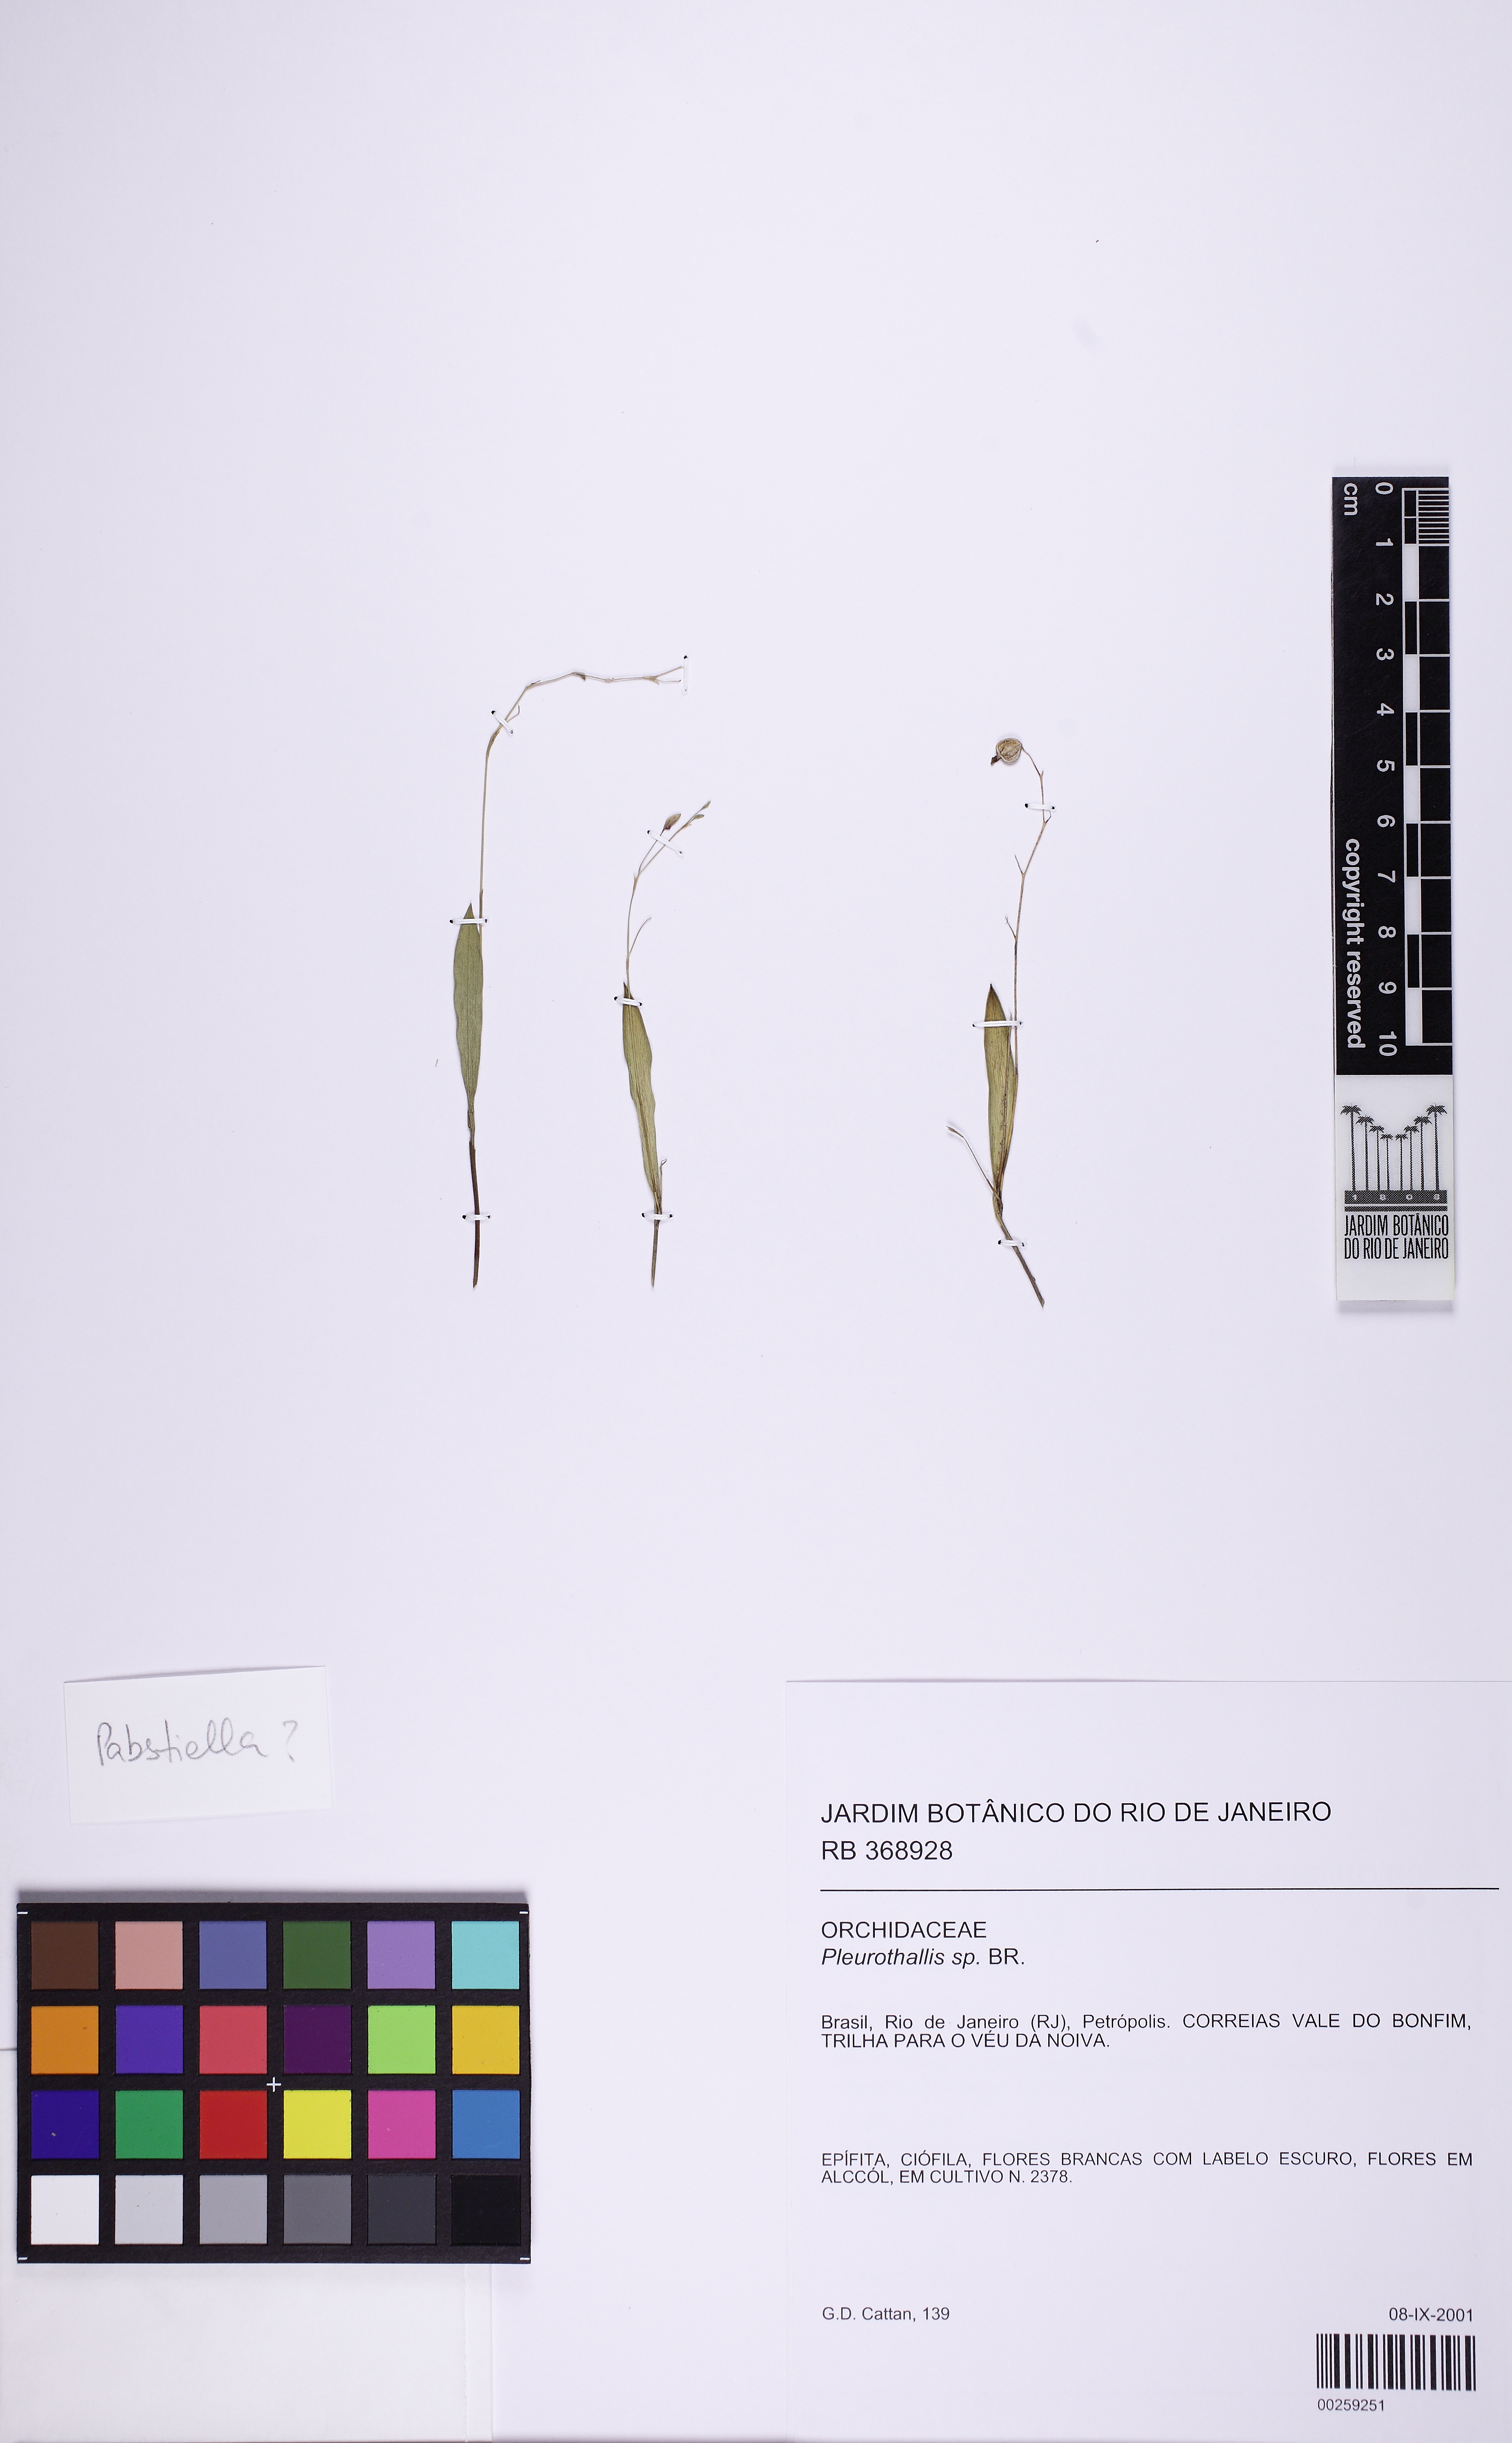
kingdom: Plantae
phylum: Tracheophyta
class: Liliopsida
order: Asparagales
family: Orchidaceae
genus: Acianthera
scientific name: Acianthera
